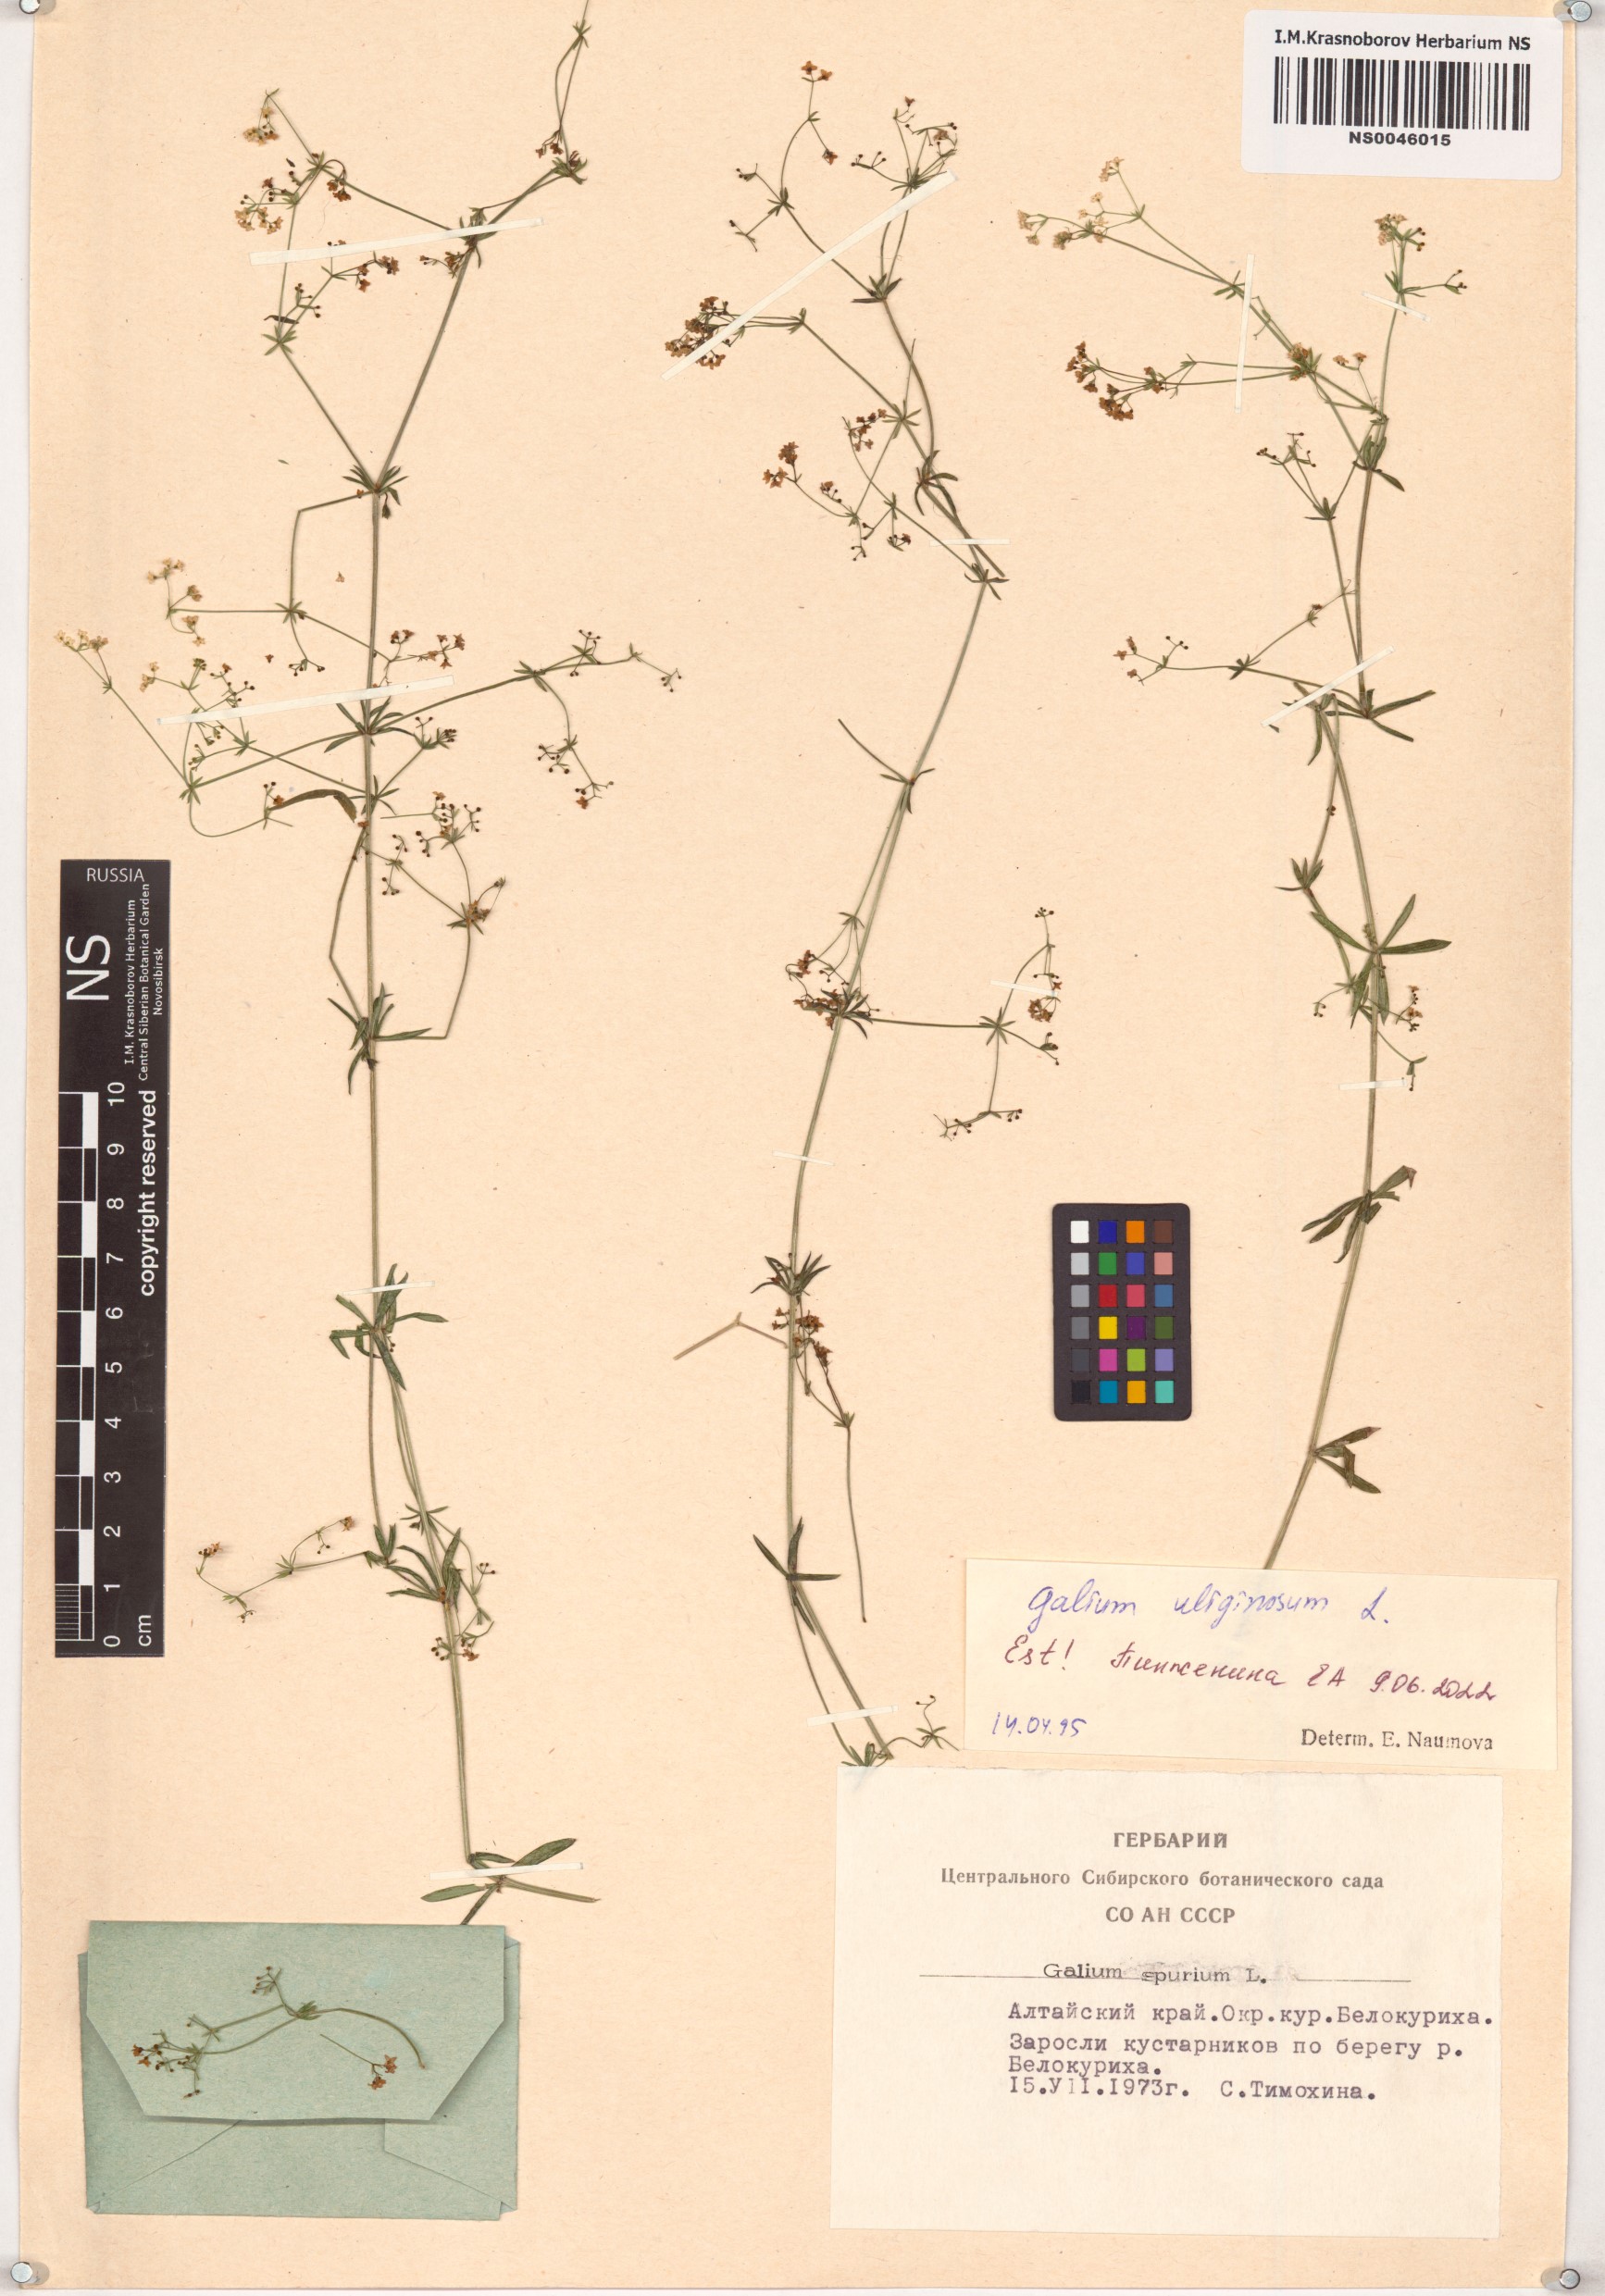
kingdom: Plantae
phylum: Tracheophyta
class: Magnoliopsida
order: Gentianales
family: Rubiaceae
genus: Galium
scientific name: Galium uliginosum
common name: Fen bedstraw
